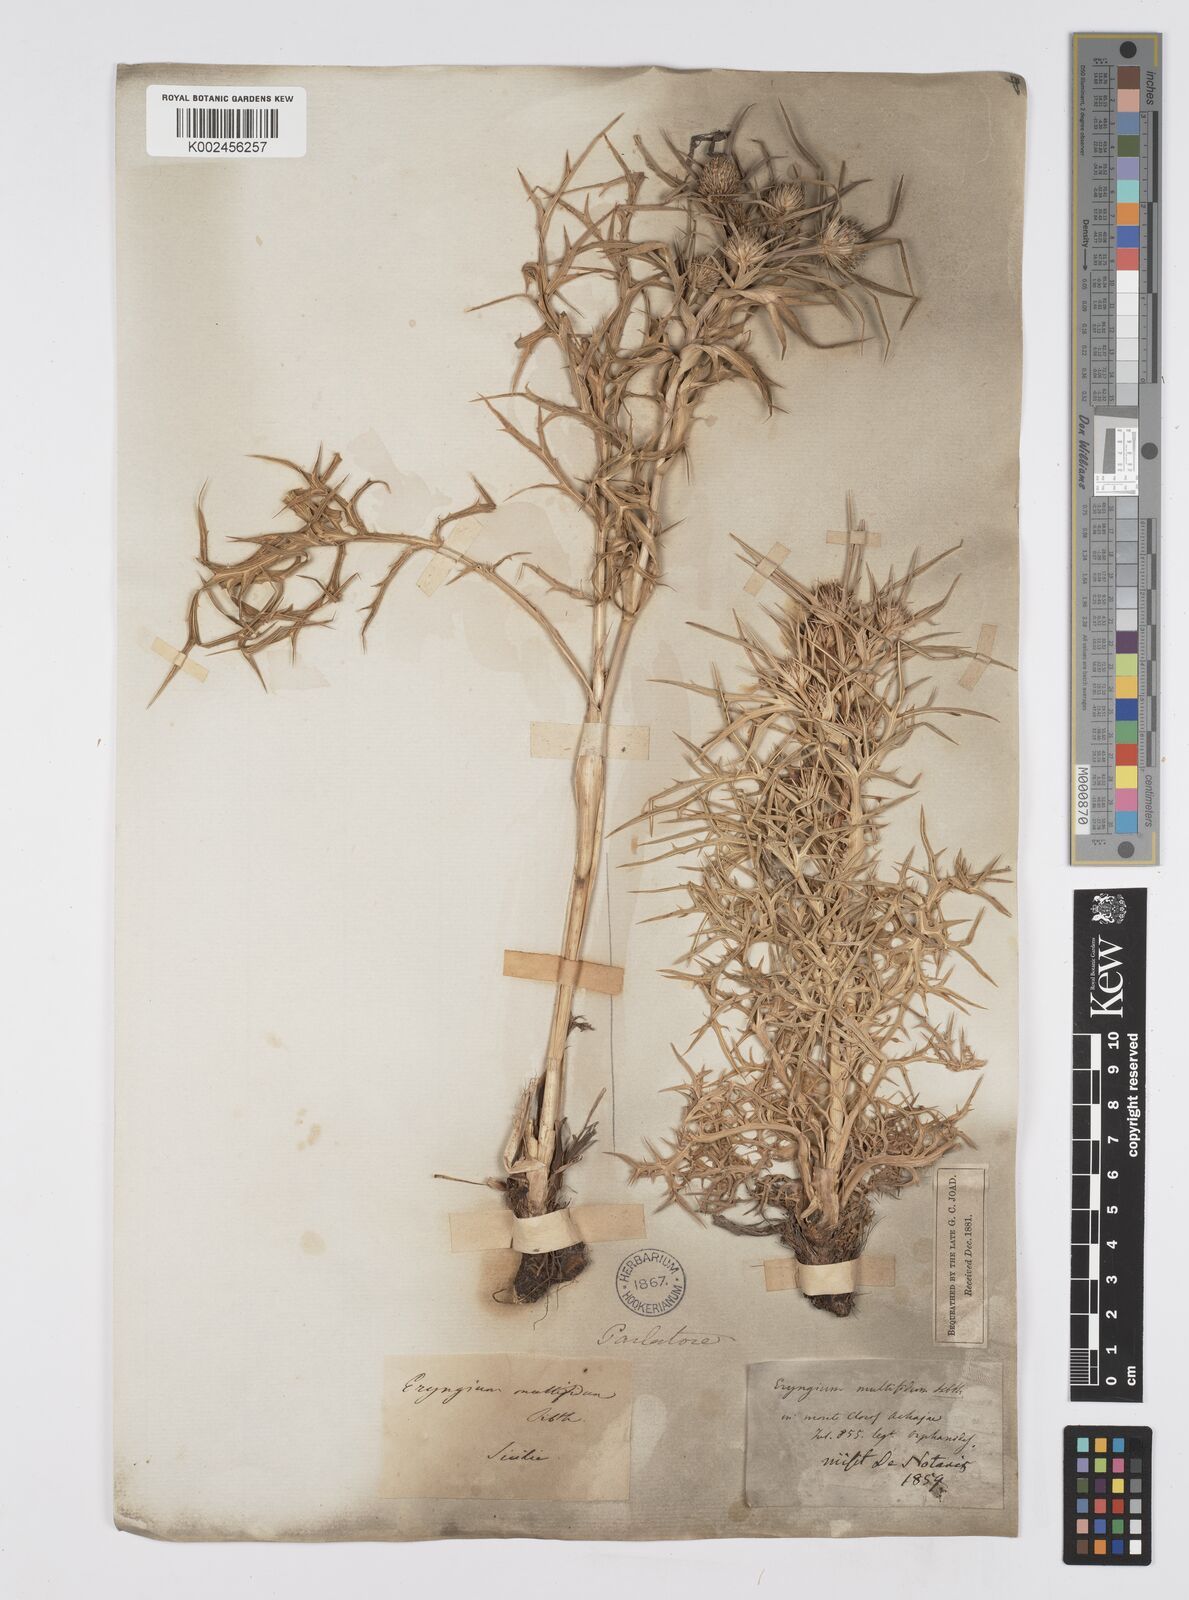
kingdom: Plantae
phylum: Tracheophyta
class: Magnoliopsida
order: Apiales
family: Apiaceae
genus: Eryngium
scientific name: Eryngium amethystinum
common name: Amethyst eryngo
